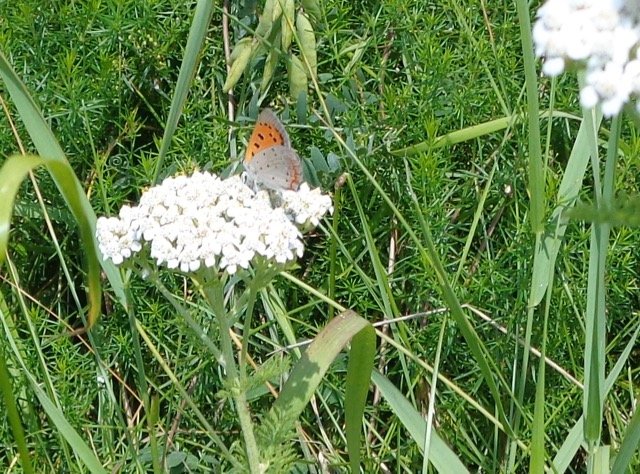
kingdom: Animalia
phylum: Arthropoda
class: Insecta
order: Lepidoptera
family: Lycaenidae
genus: Lycaena
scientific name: Lycaena phlaeas
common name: American Copper
